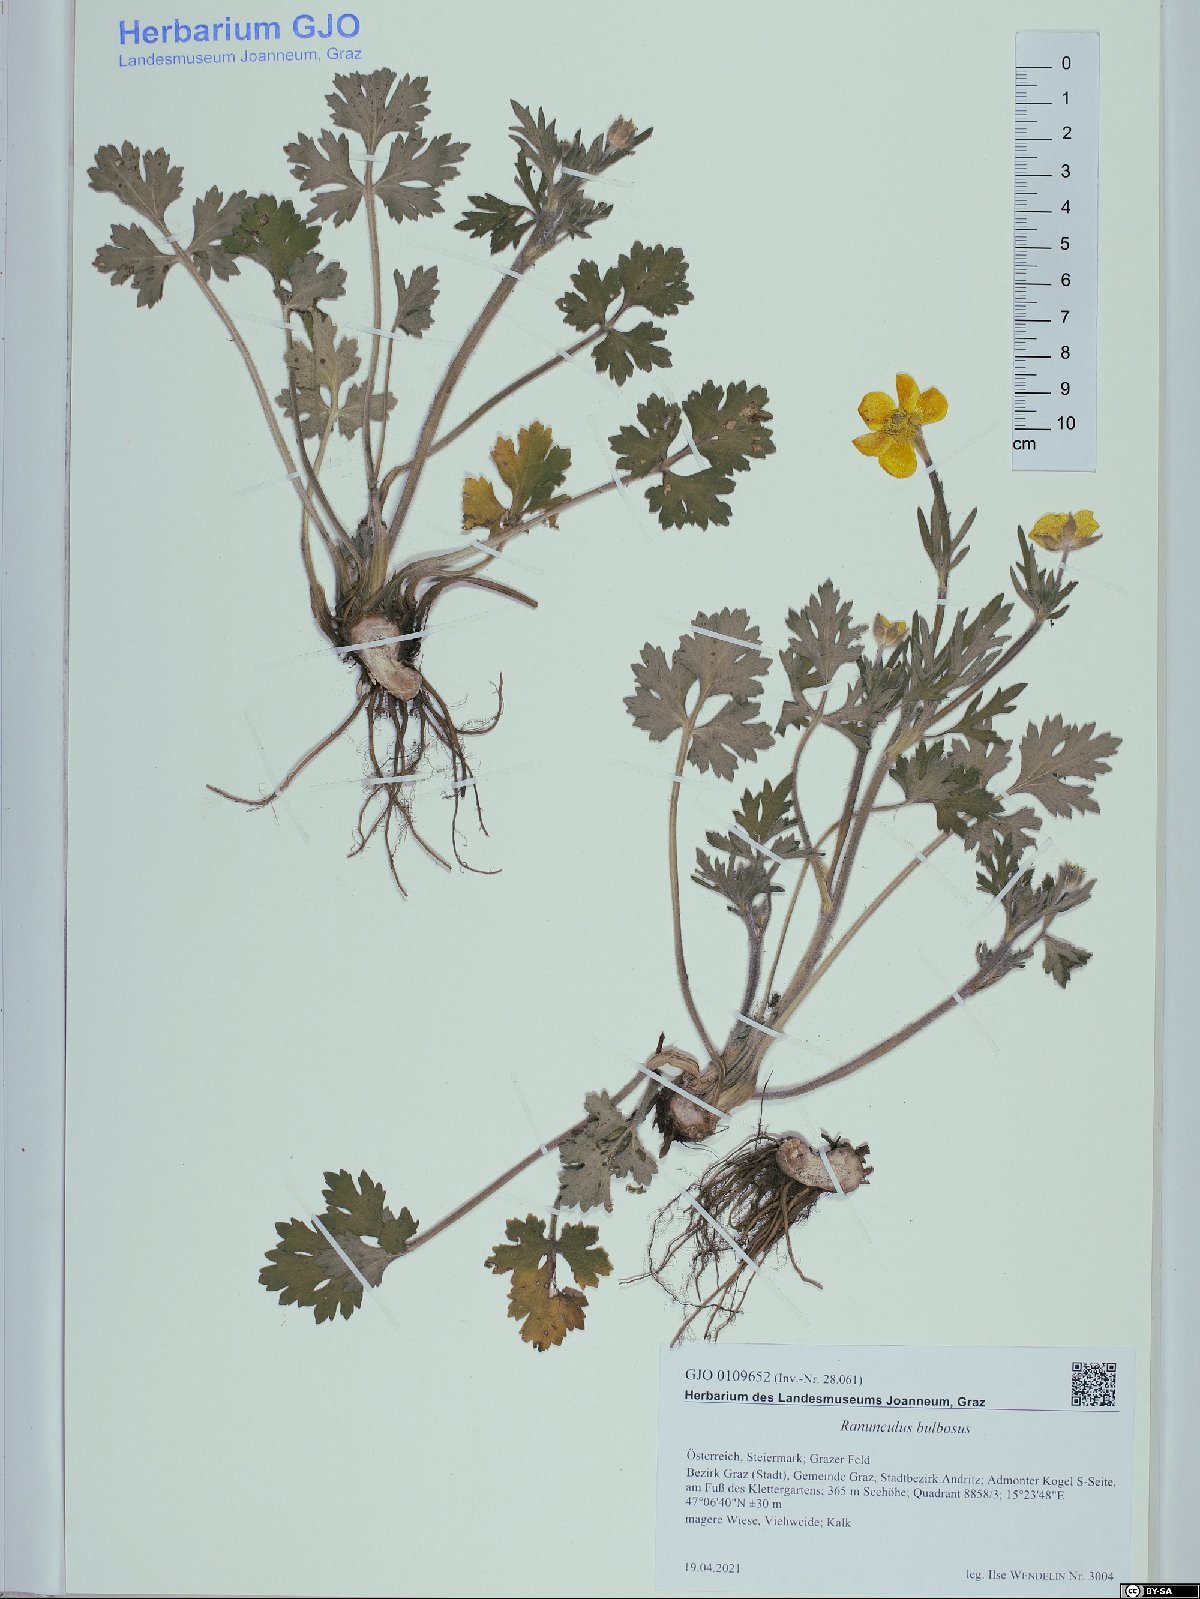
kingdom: Plantae
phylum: Tracheophyta
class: Magnoliopsida
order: Ranunculales
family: Ranunculaceae
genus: Ranunculus
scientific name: Ranunculus bulbosus
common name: Bulbous buttercup
